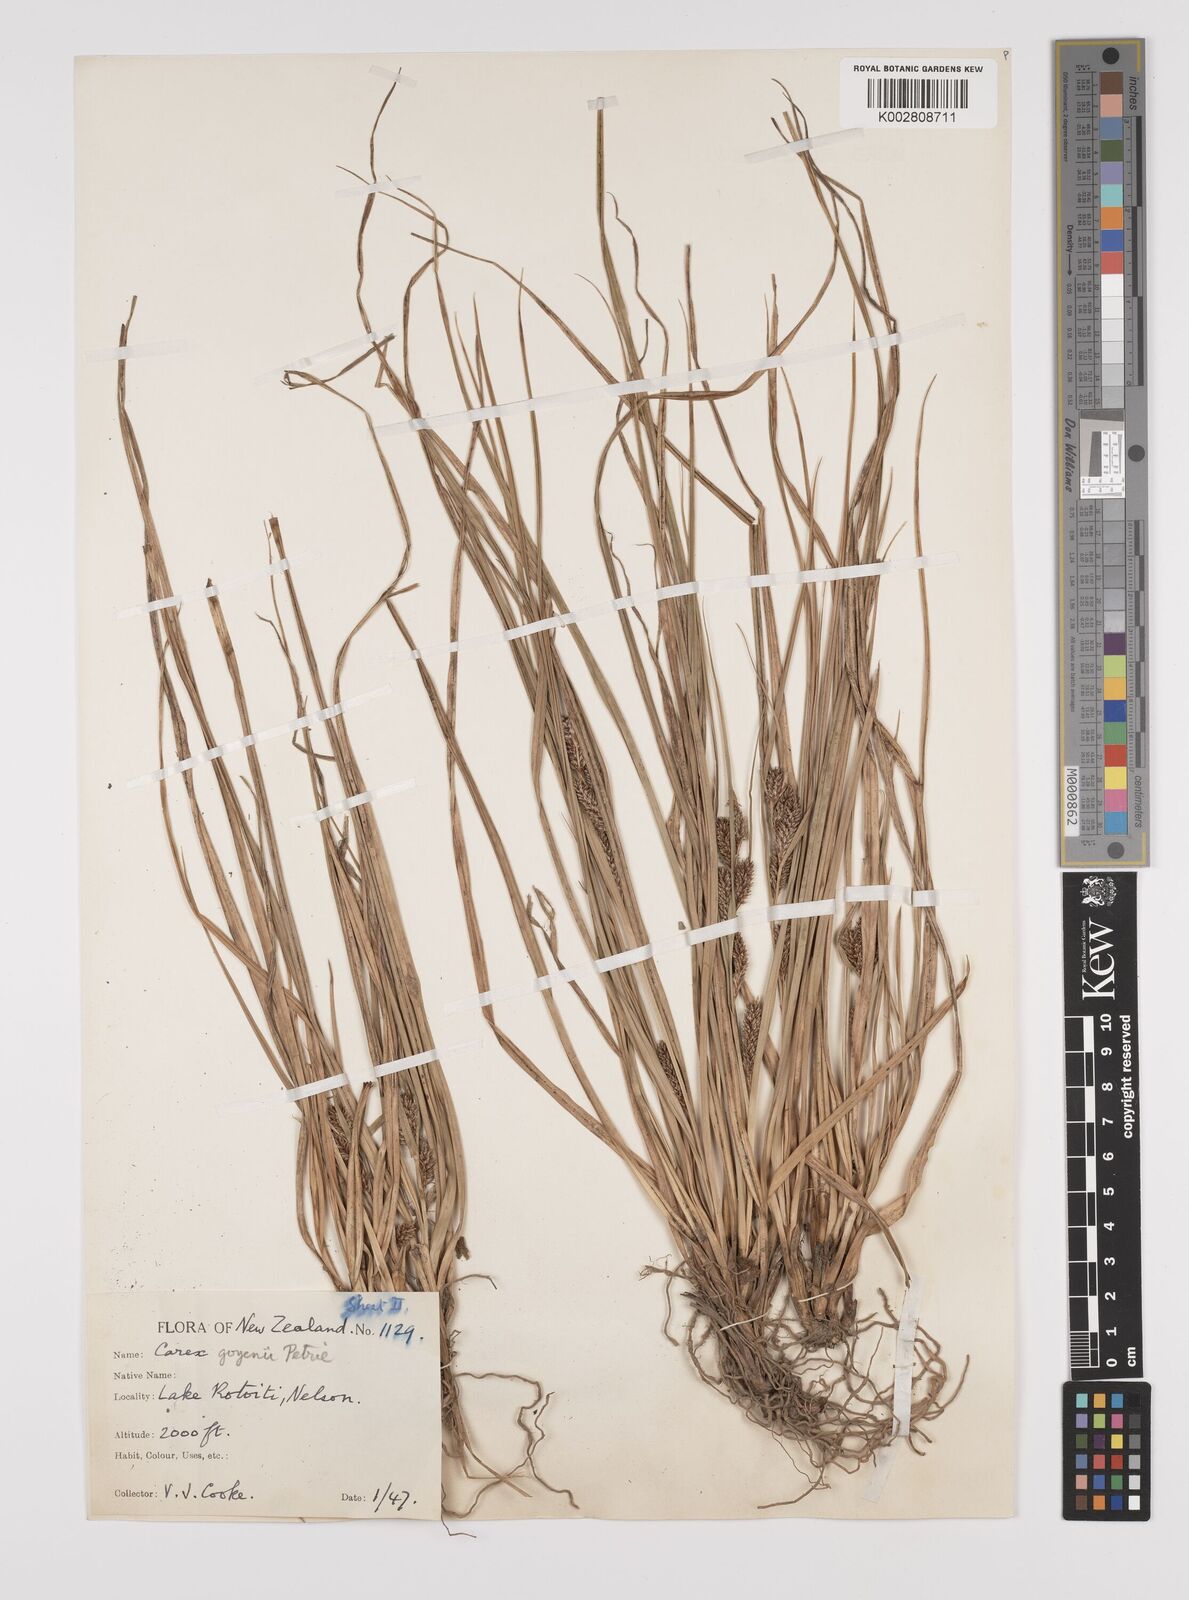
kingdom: Plantae
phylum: Tracheophyta
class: Liliopsida
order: Poales
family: Cyperaceae
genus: Carex
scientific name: Carex raoulii
